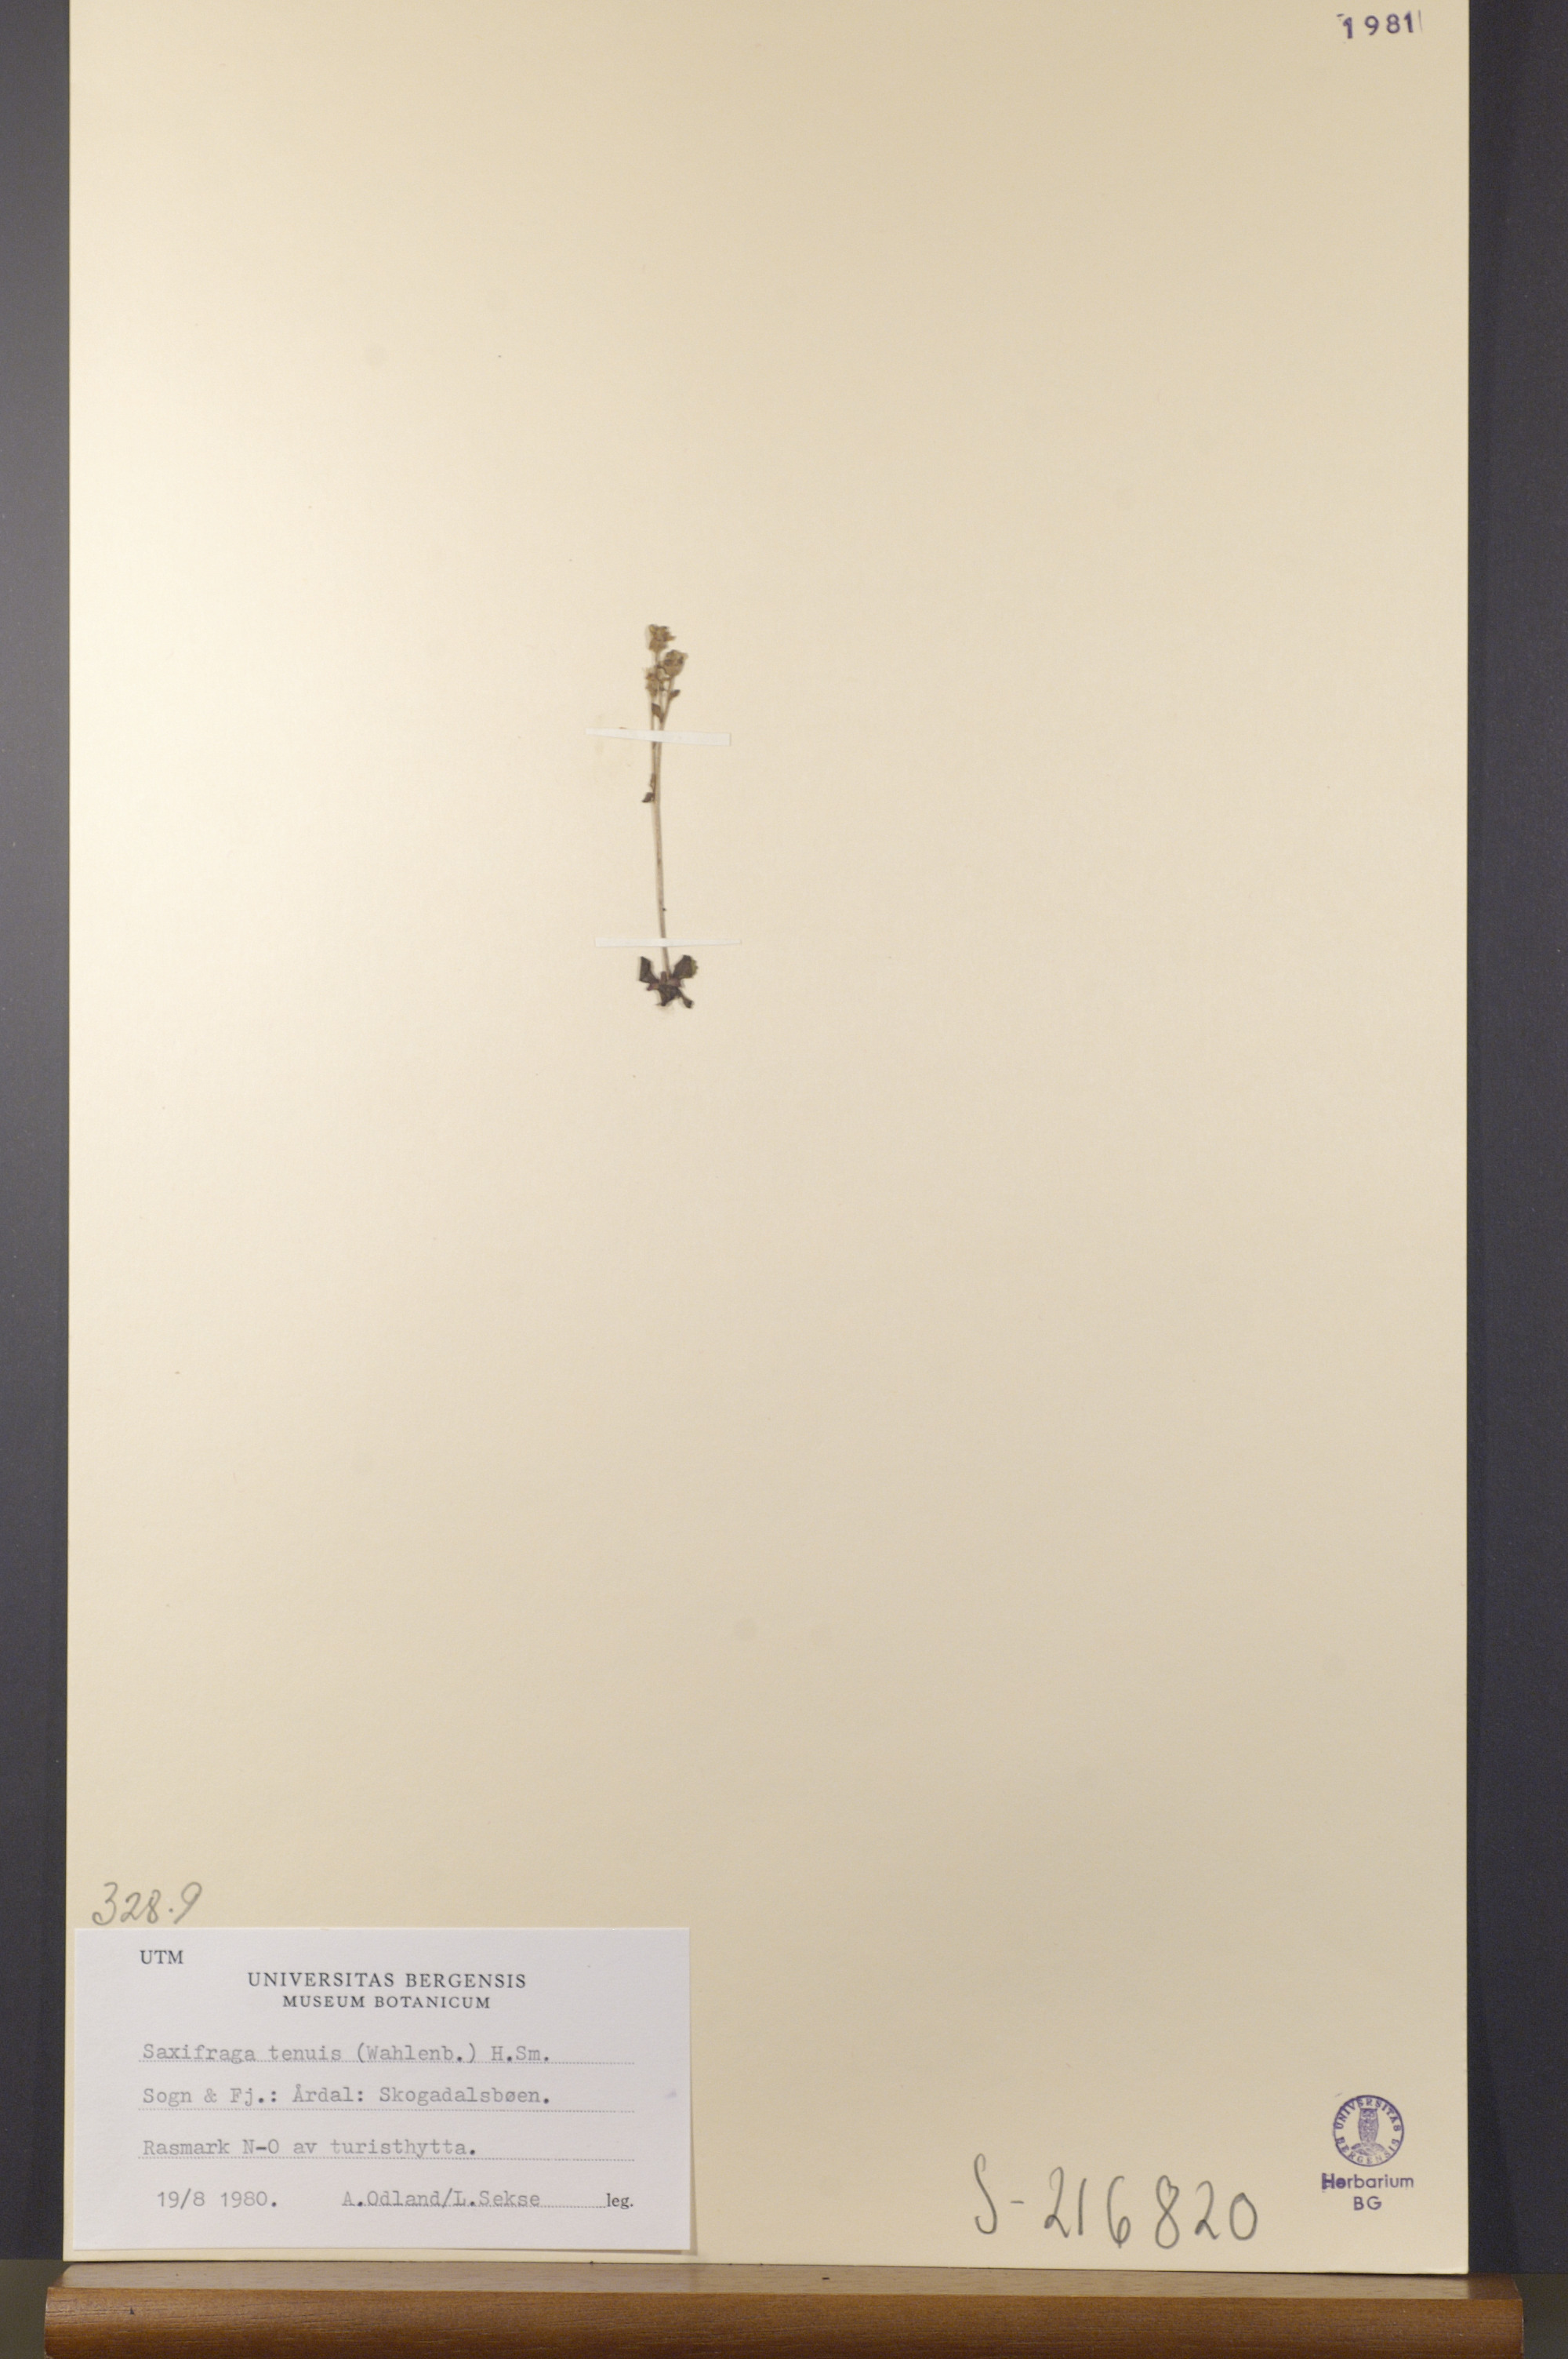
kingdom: Plantae
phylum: Tracheophyta
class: Magnoliopsida
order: Saxifragales
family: Saxifragaceae
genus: Micranthes
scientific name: Micranthes tenuis
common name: Ottertail pass saxifrage
